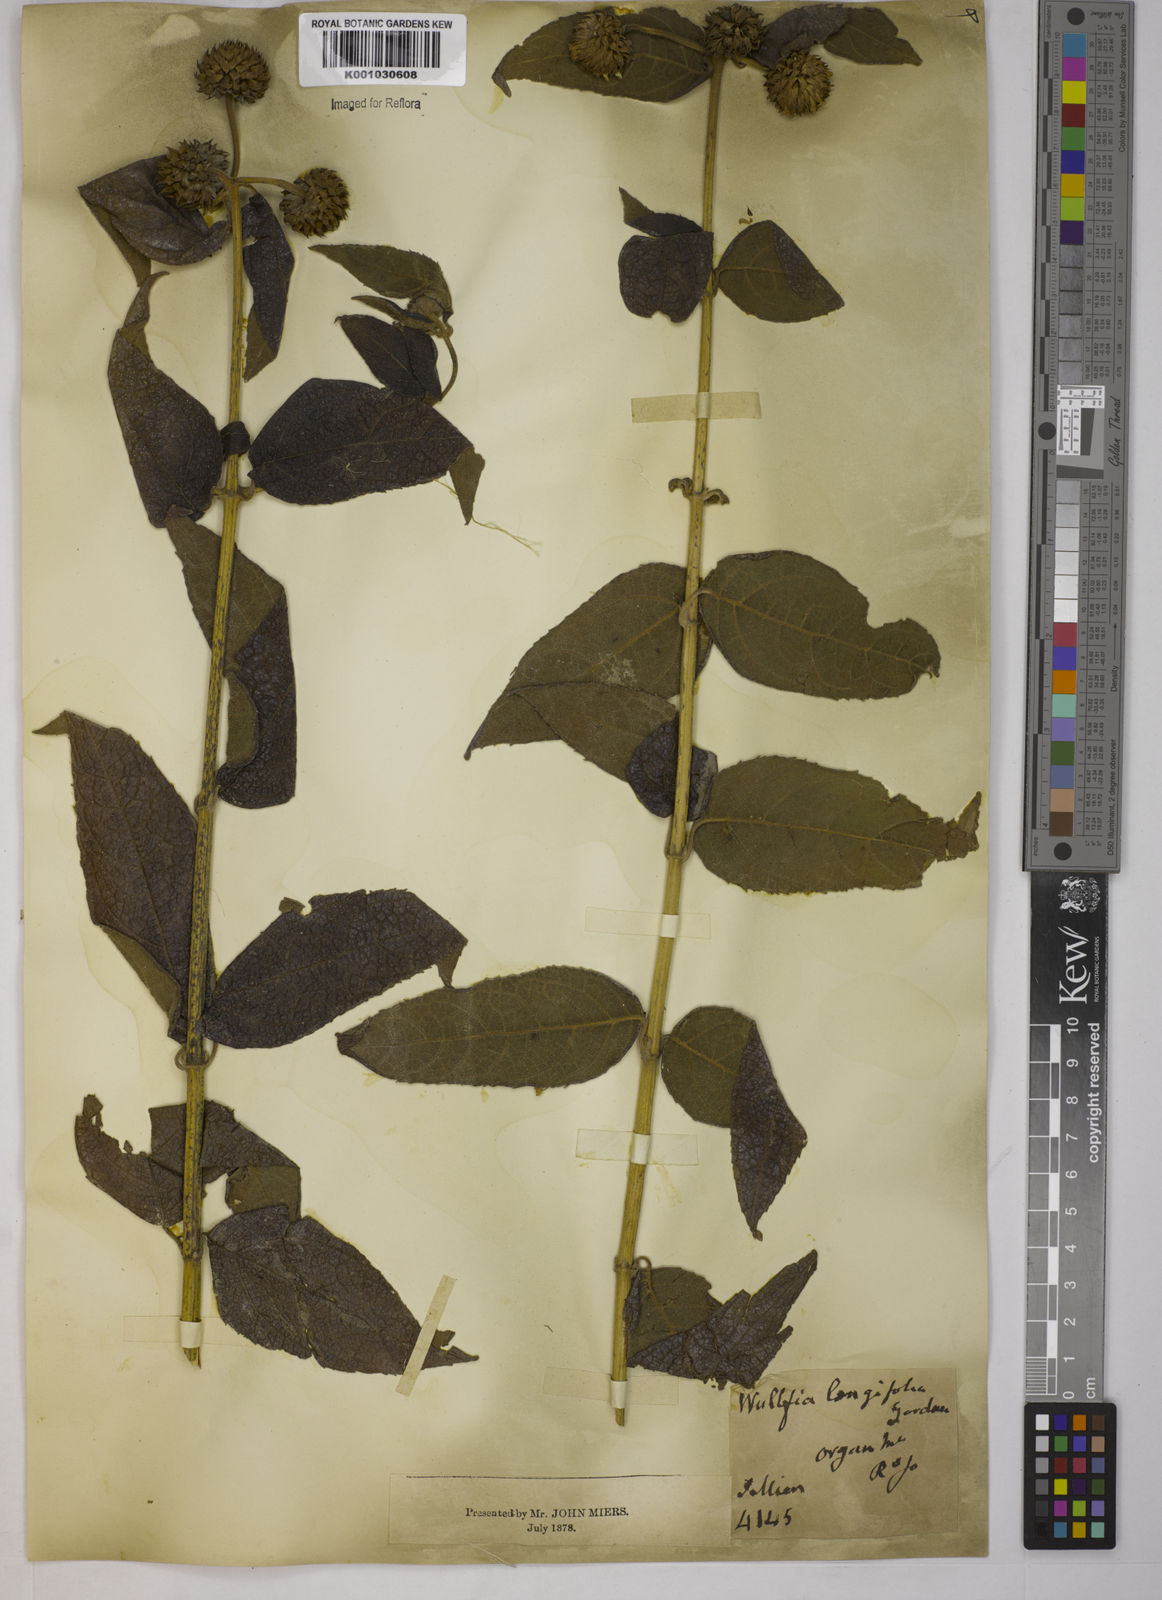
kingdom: Plantae
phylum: Tracheophyta
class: Magnoliopsida
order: Asterales
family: Asteraceae
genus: Tilesia
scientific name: Tilesia baccata
